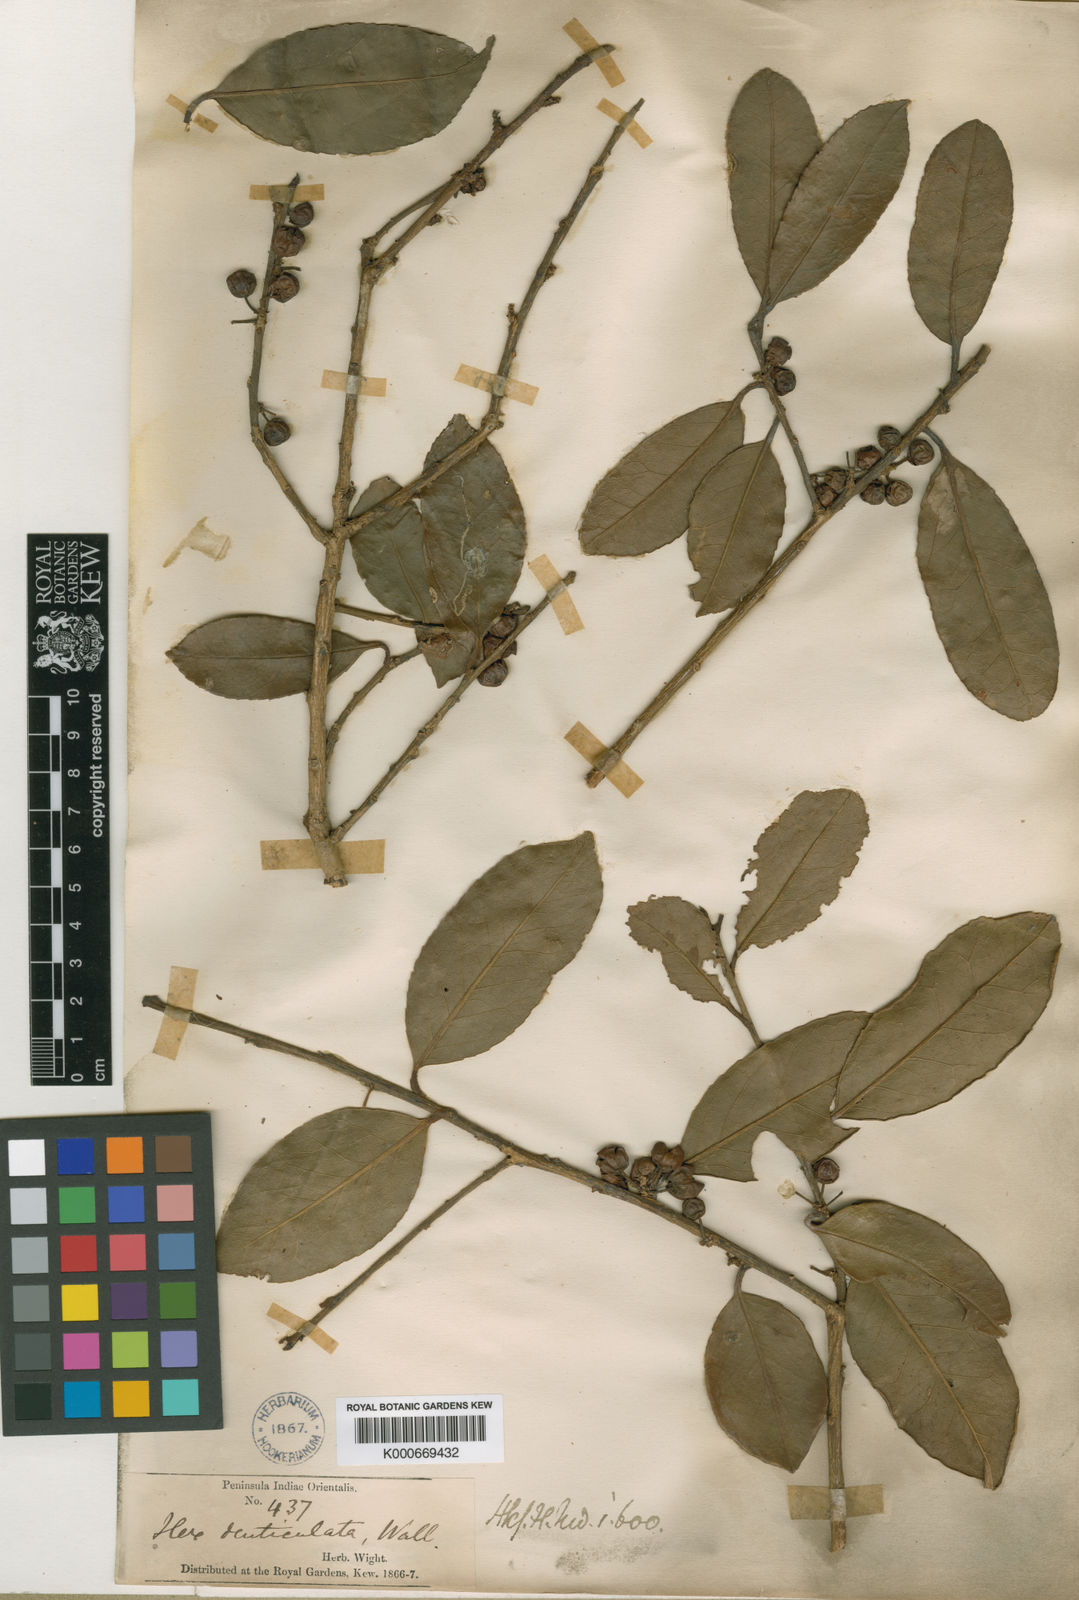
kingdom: Plantae
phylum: Tracheophyta
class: Magnoliopsida
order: Aquifoliales
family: Aquifoliaceae
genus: Ilex
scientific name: Ilex denticulata
